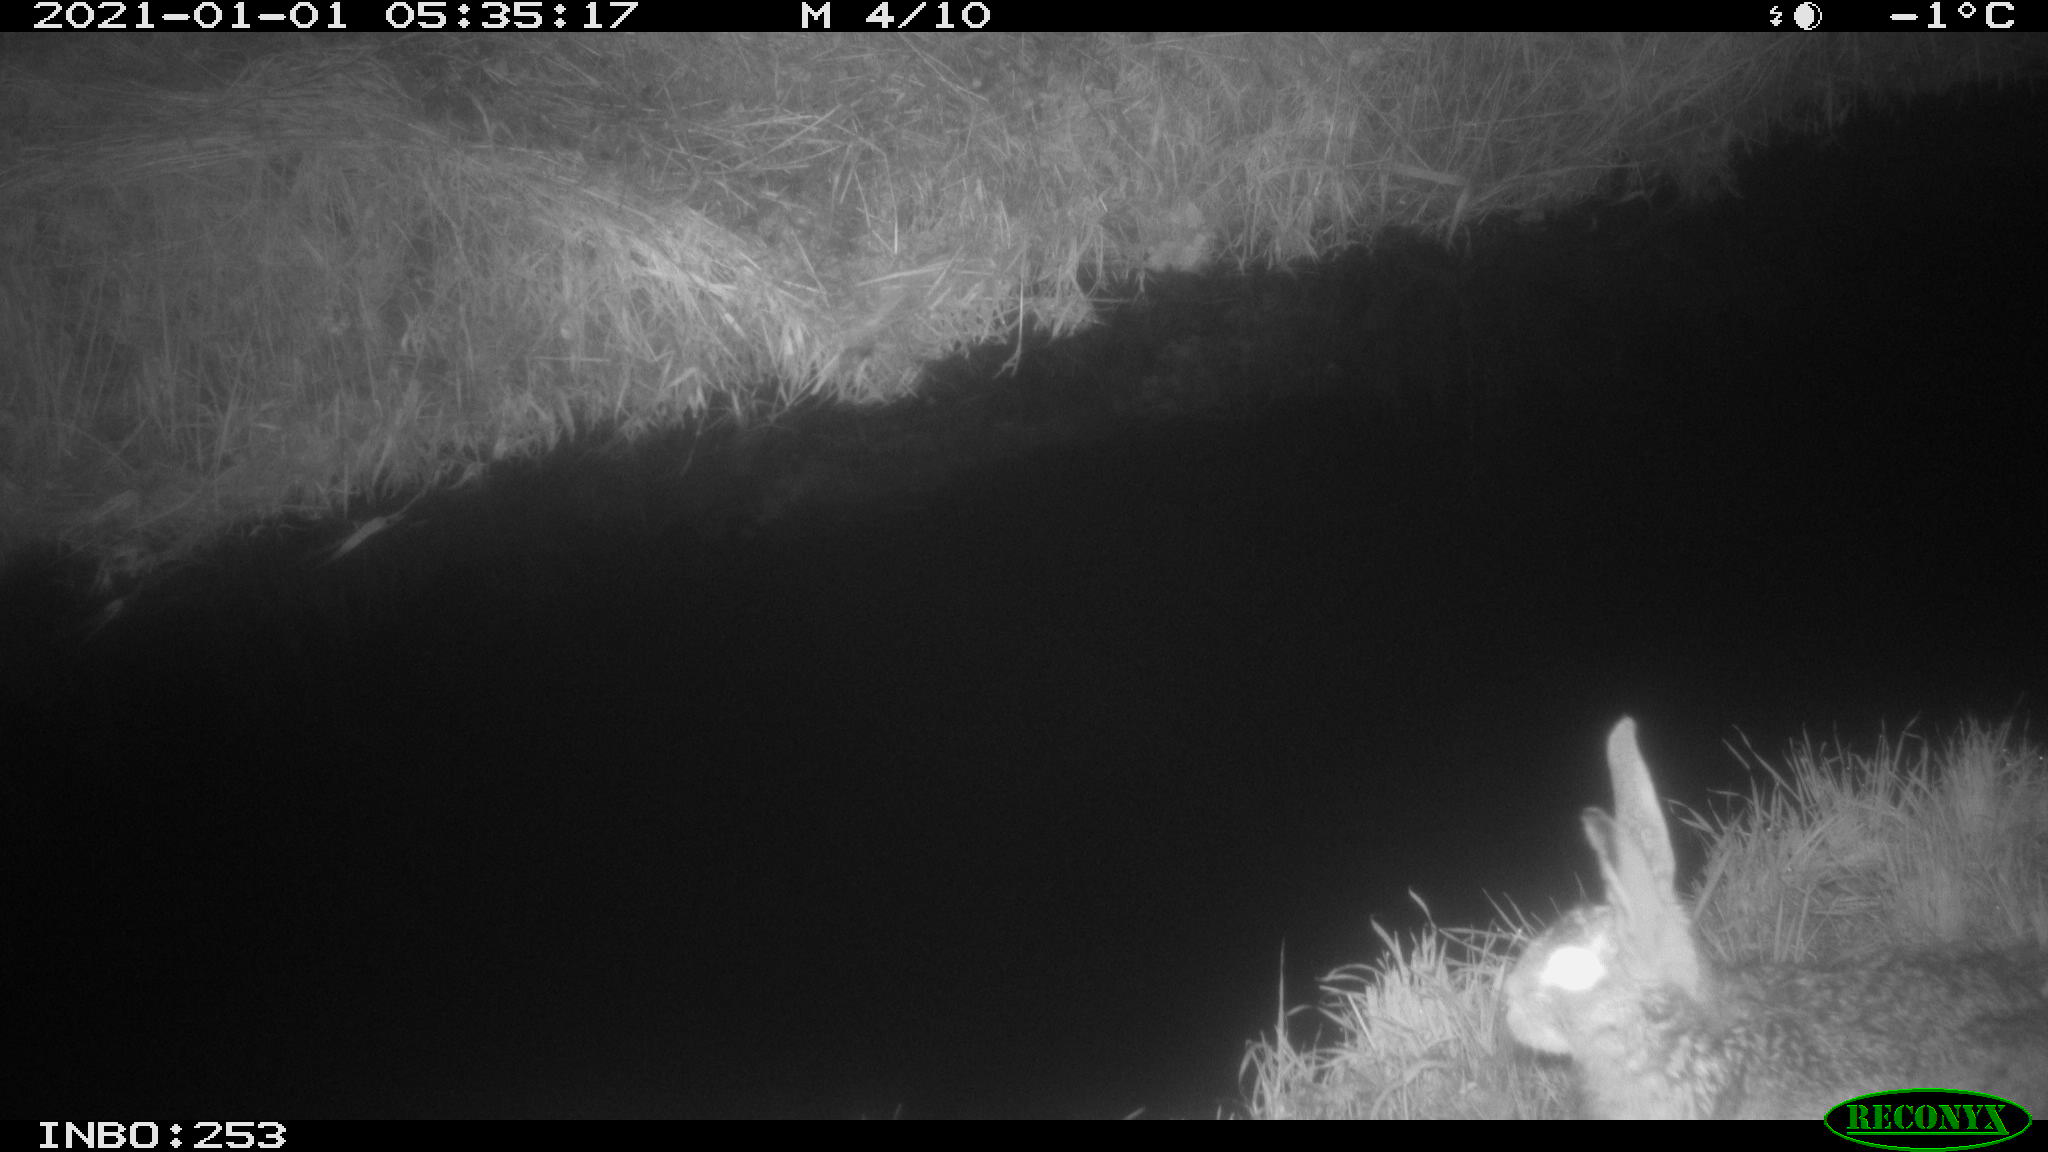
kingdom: Animalia
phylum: Chordata
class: Mammalia
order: Lagomorpha
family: Leporidae
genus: Lepus
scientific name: Lepus europaeus
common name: European hare
